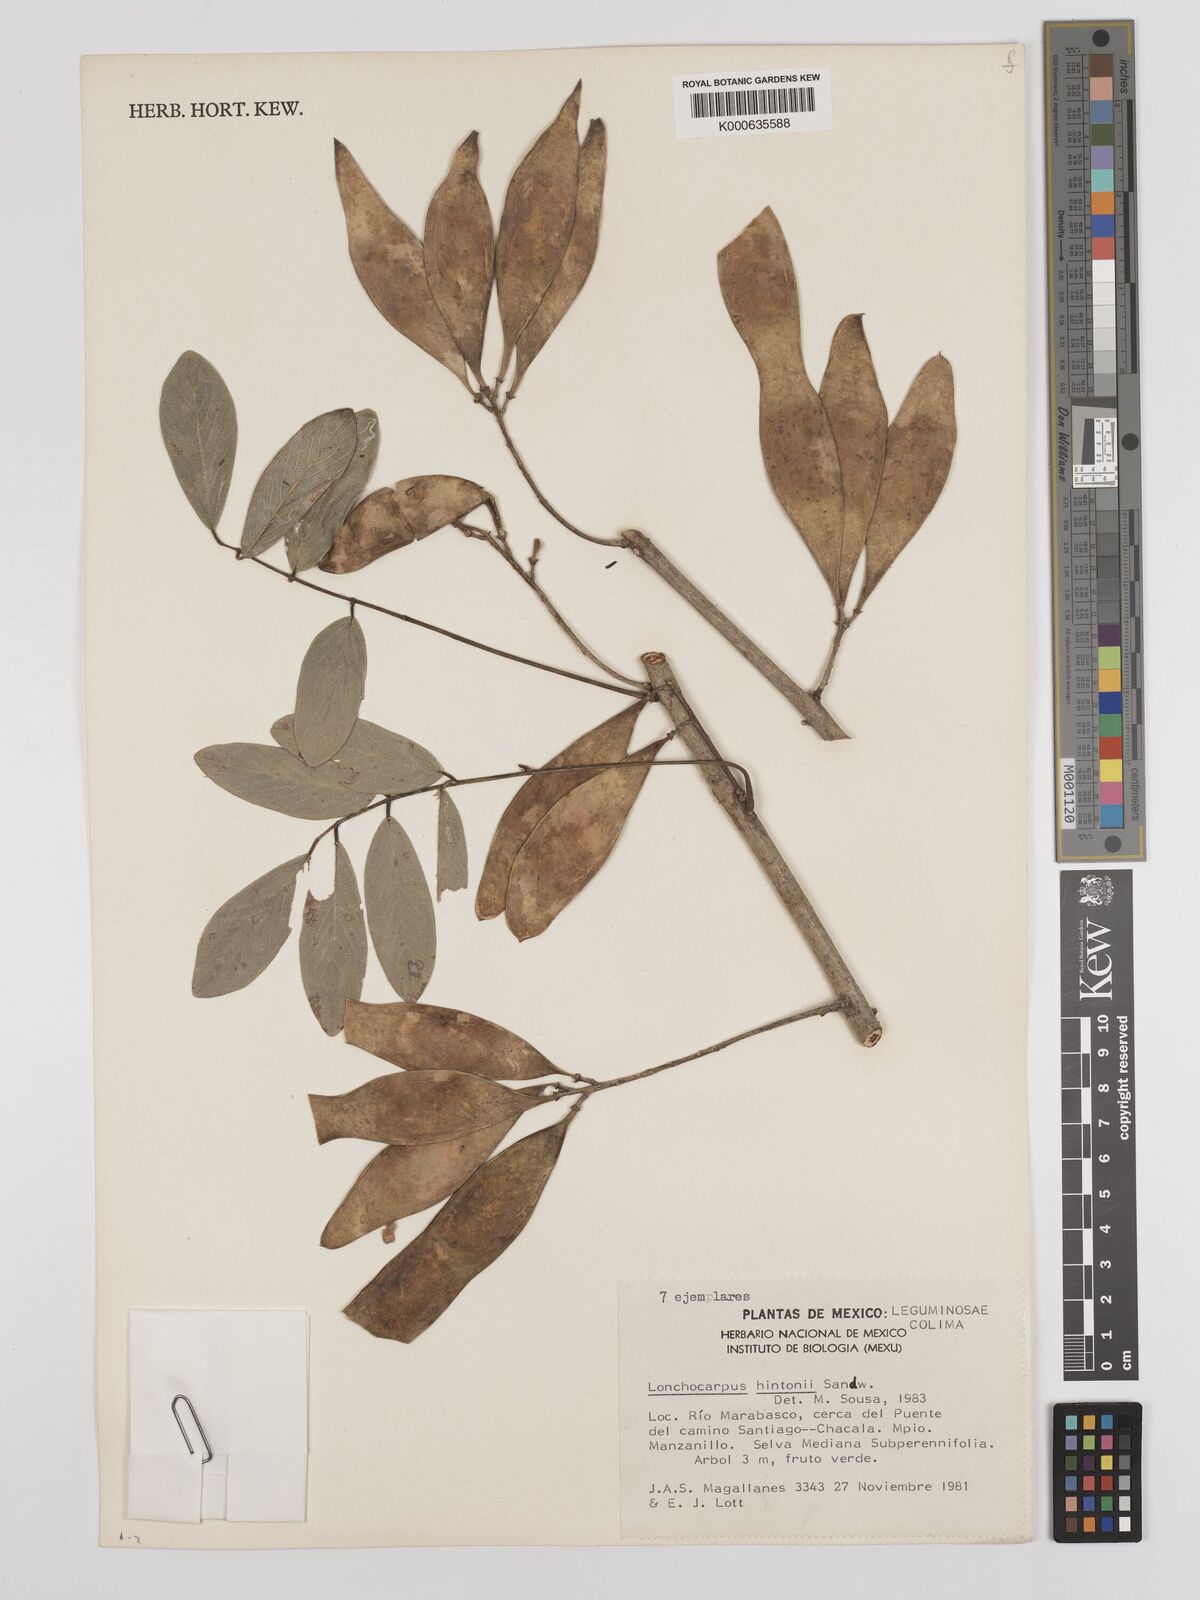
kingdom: Plantae
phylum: Tracheophyta
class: Magnoliopsida
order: Fabales
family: Fabaceae
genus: Lonchocarpus
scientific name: Lonchocarpus hintonii
